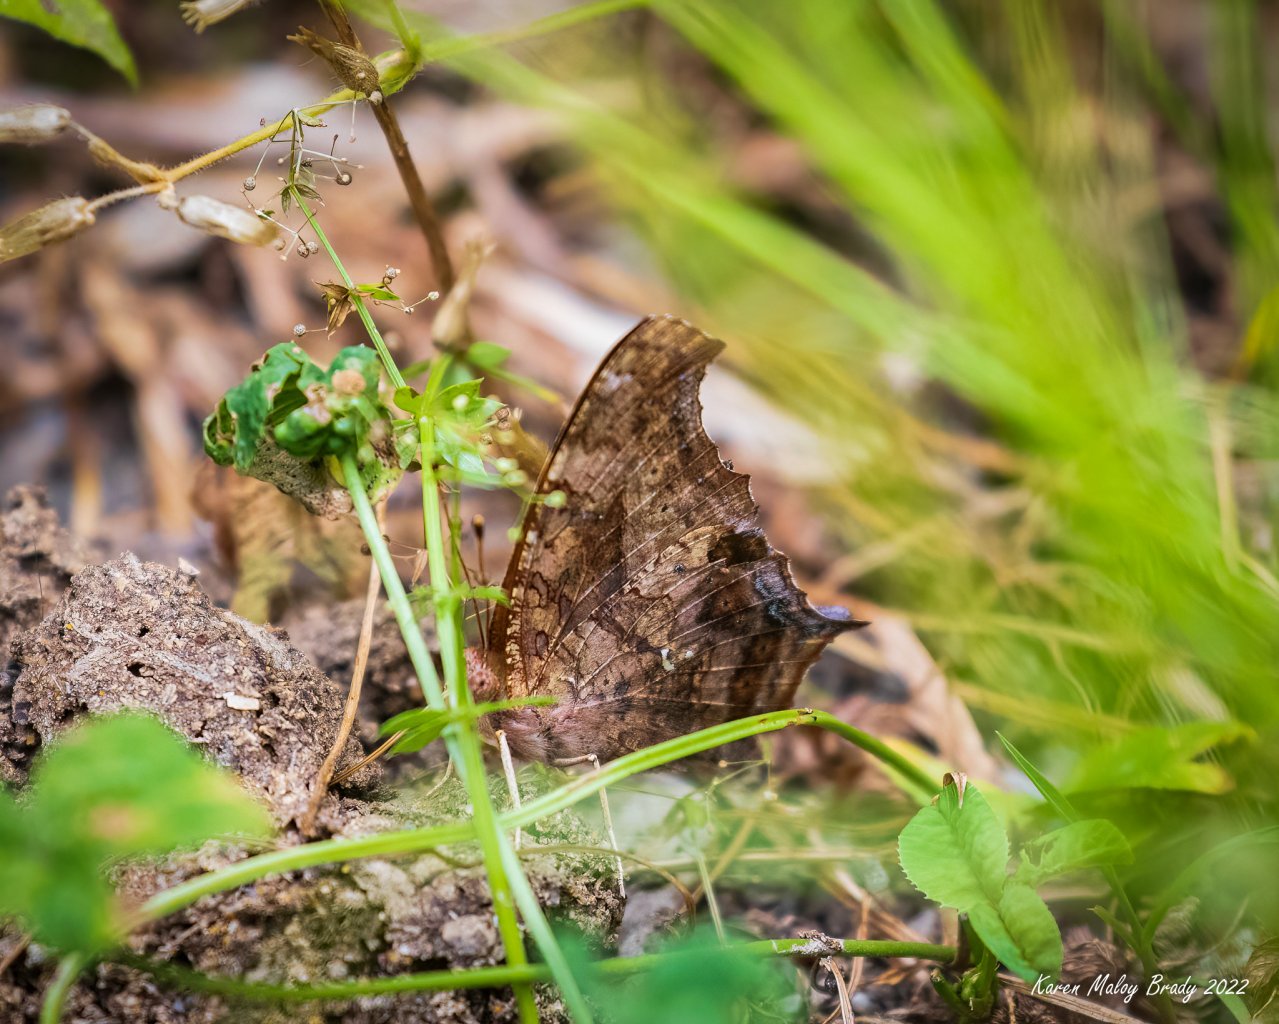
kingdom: Animalia
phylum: Arthropoda
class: Insecta
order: Lepidoptera
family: Nymphalidae
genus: Polygonia
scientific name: Polygonia interrogationis
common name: Question Mark
